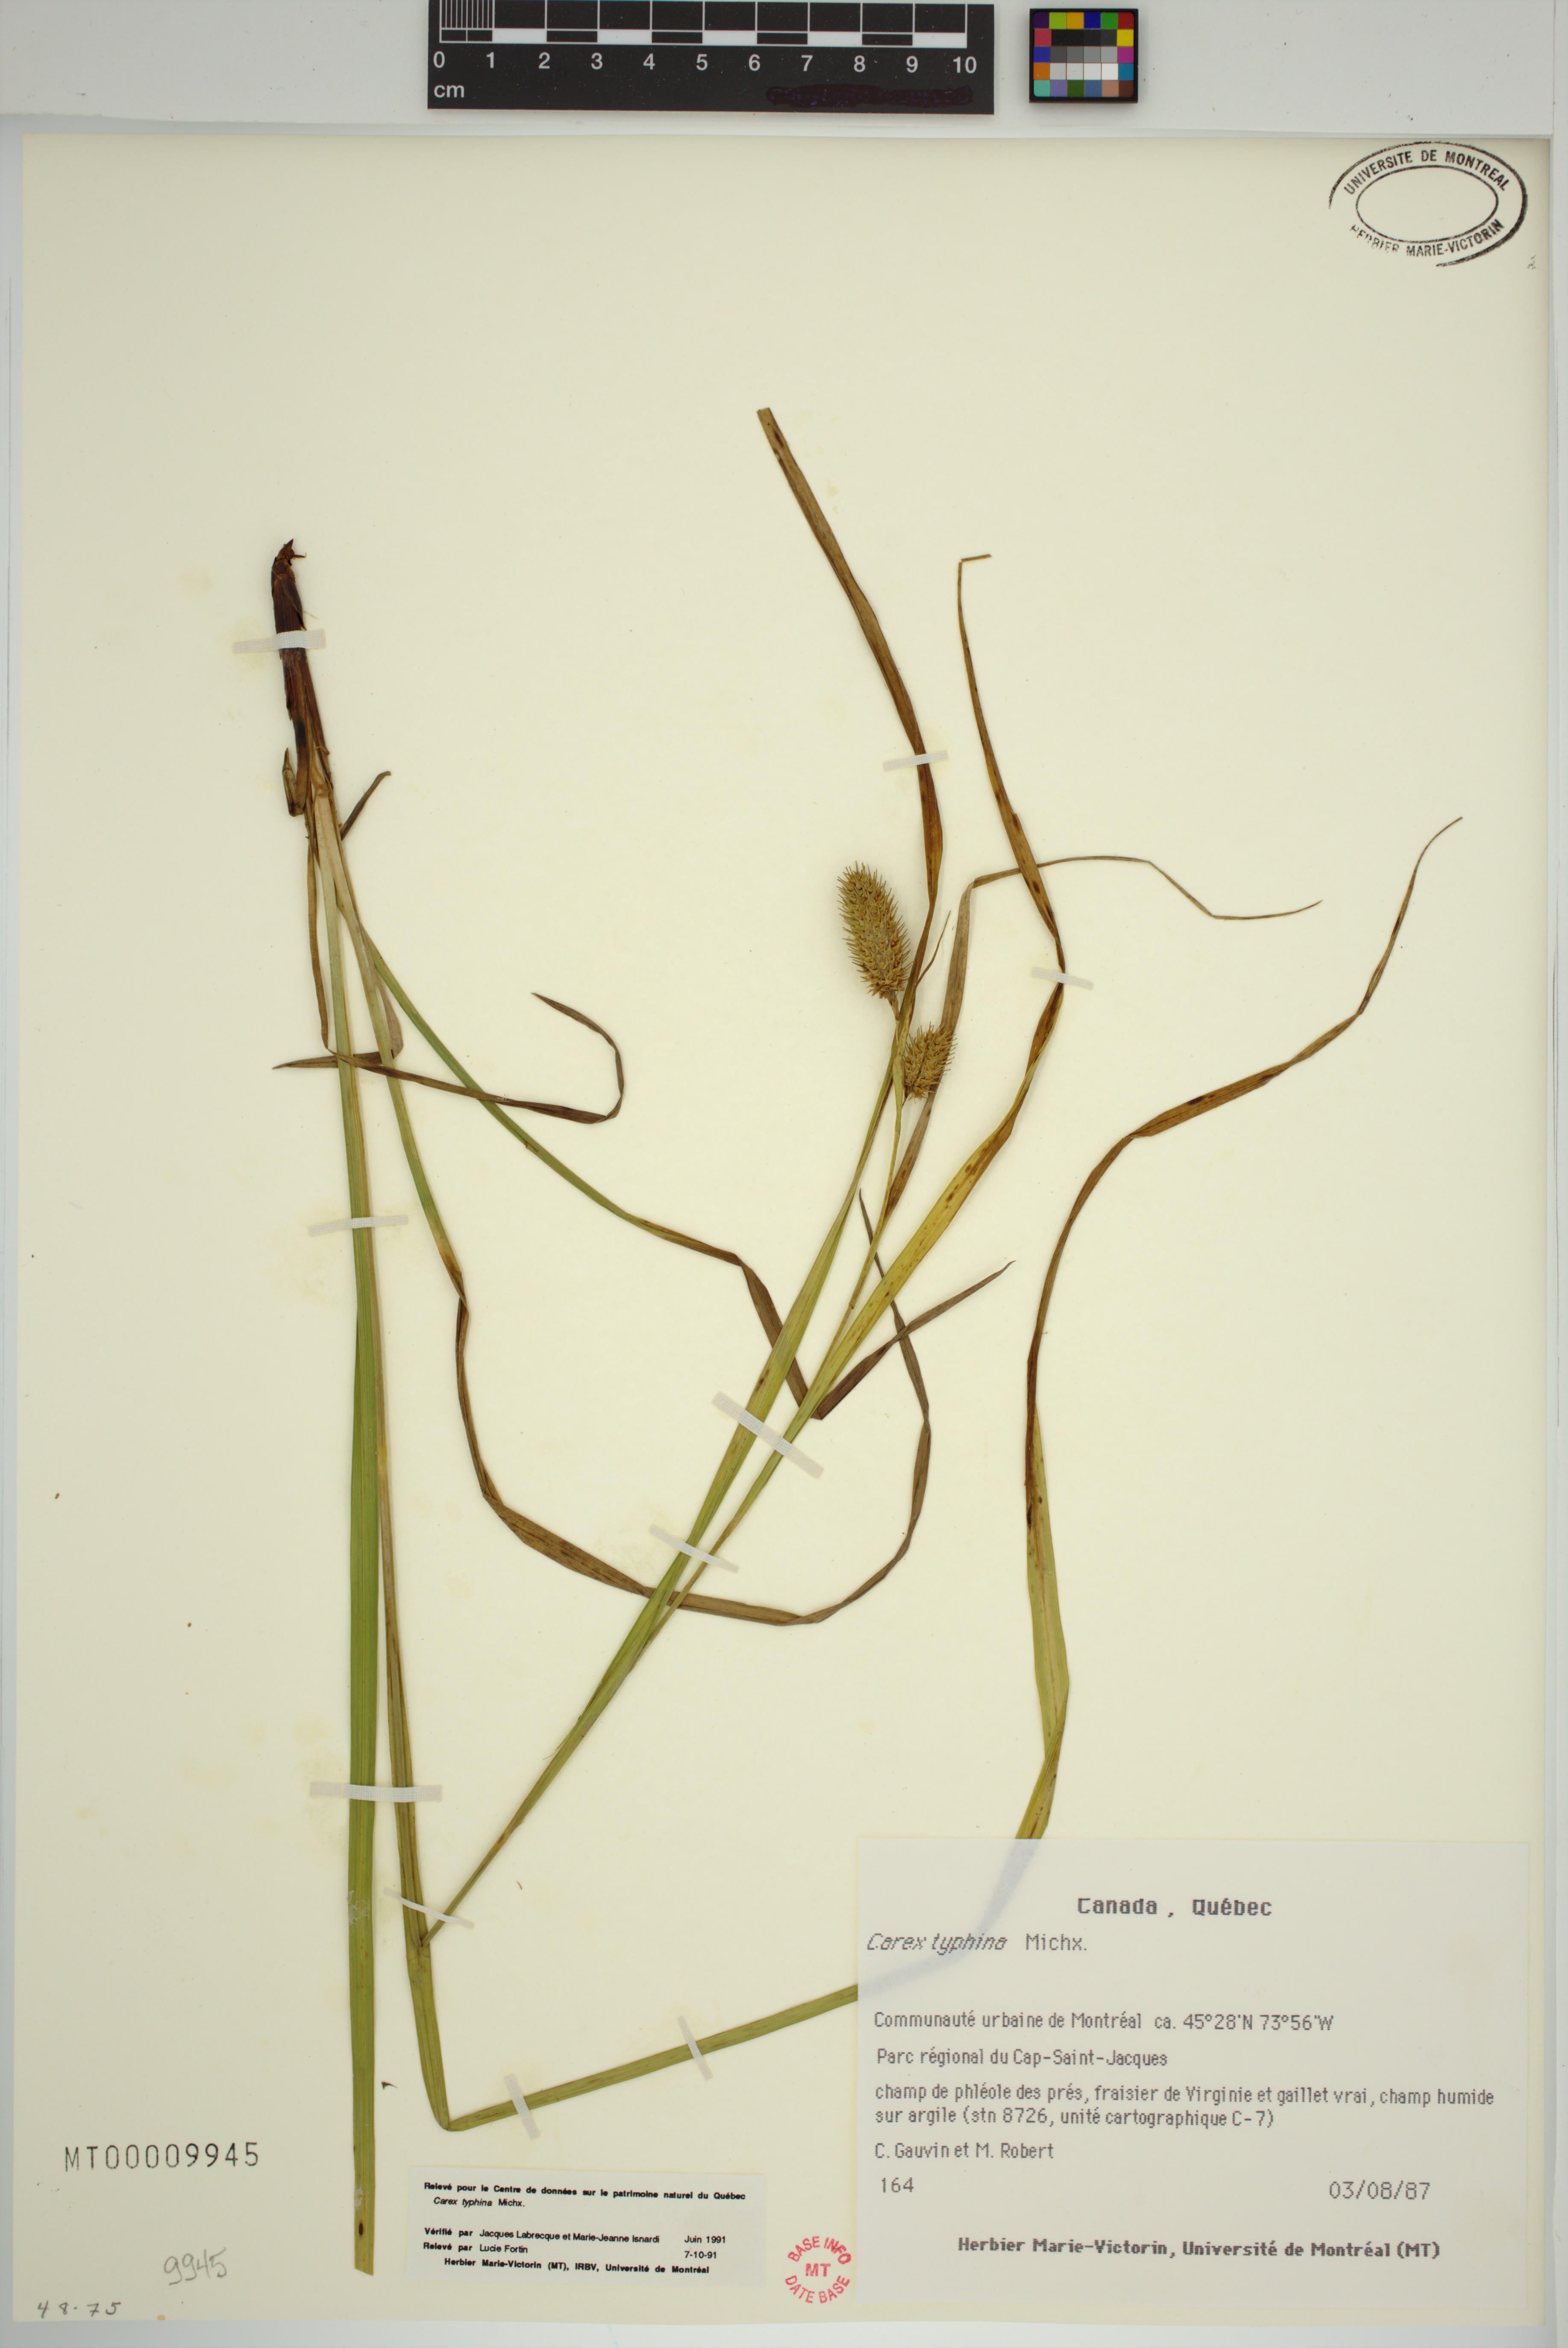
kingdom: Plantae
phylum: Tracheophyta
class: Liliopsida
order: Poales
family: Cyperaceae
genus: Carex
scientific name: Carex typhina
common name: Cattail sedge
